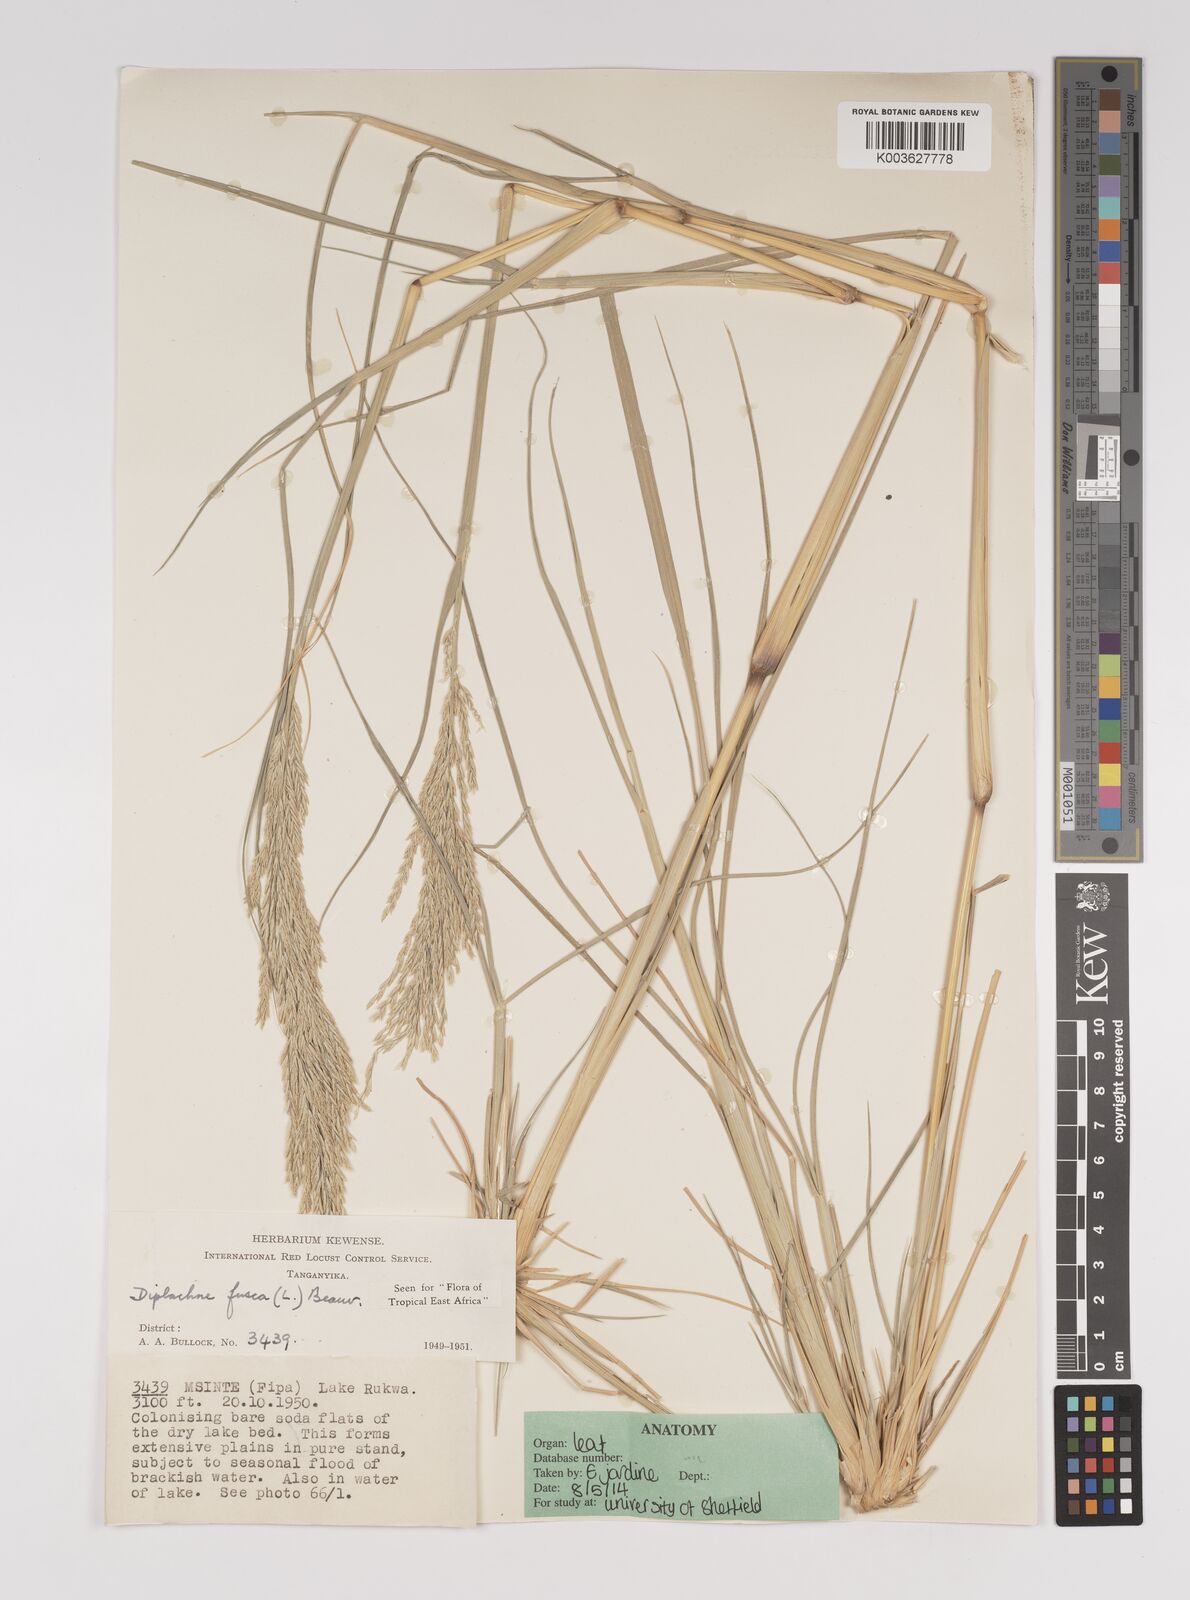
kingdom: Plantae
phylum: Tracheophyta
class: Liliopsida
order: Poales
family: Poaceae
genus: Diplachne
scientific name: Diplachne fusca
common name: Brown beetle grass
